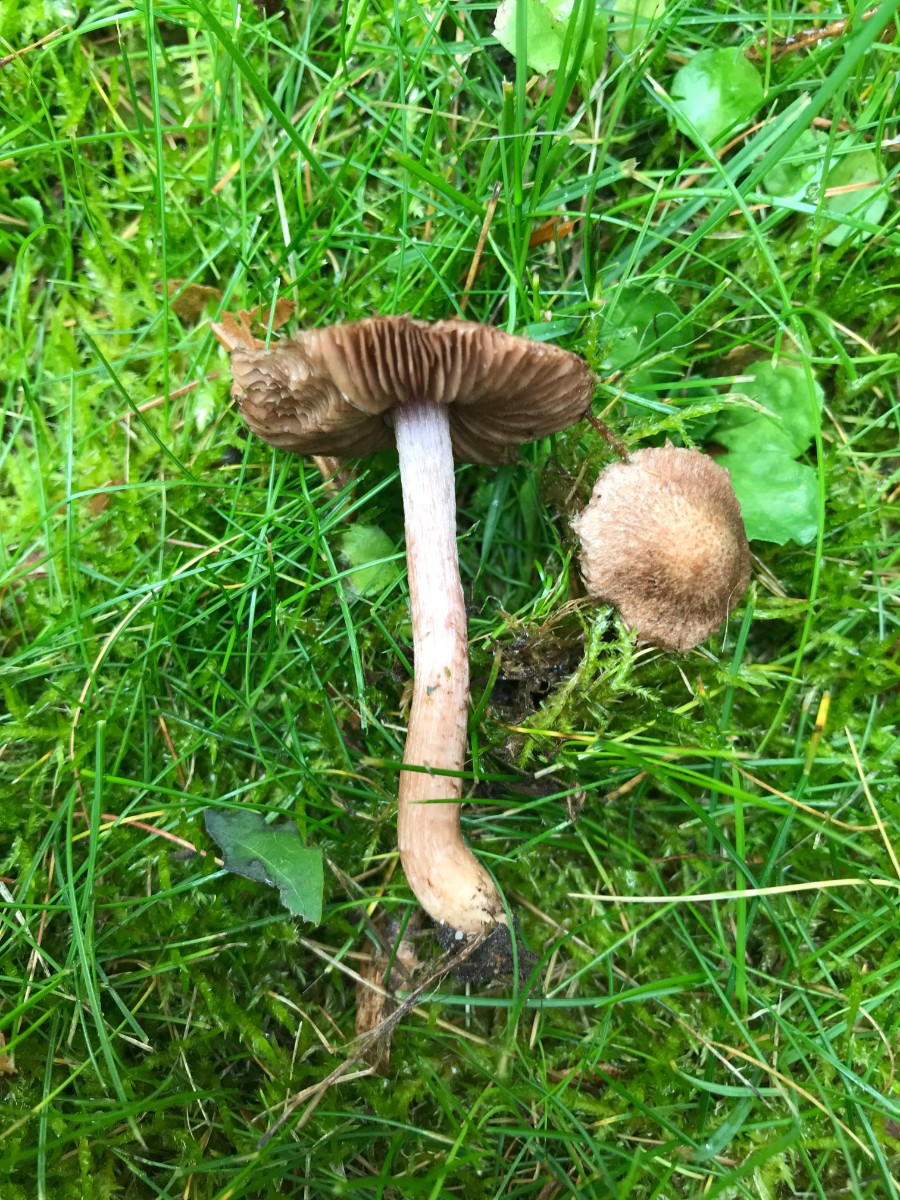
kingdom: Fungi
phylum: Basidiomycota
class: Agaricomycetes
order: Agaricales
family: Inocybaceae
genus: Inocybe
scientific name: Inocybe
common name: trævlhat
